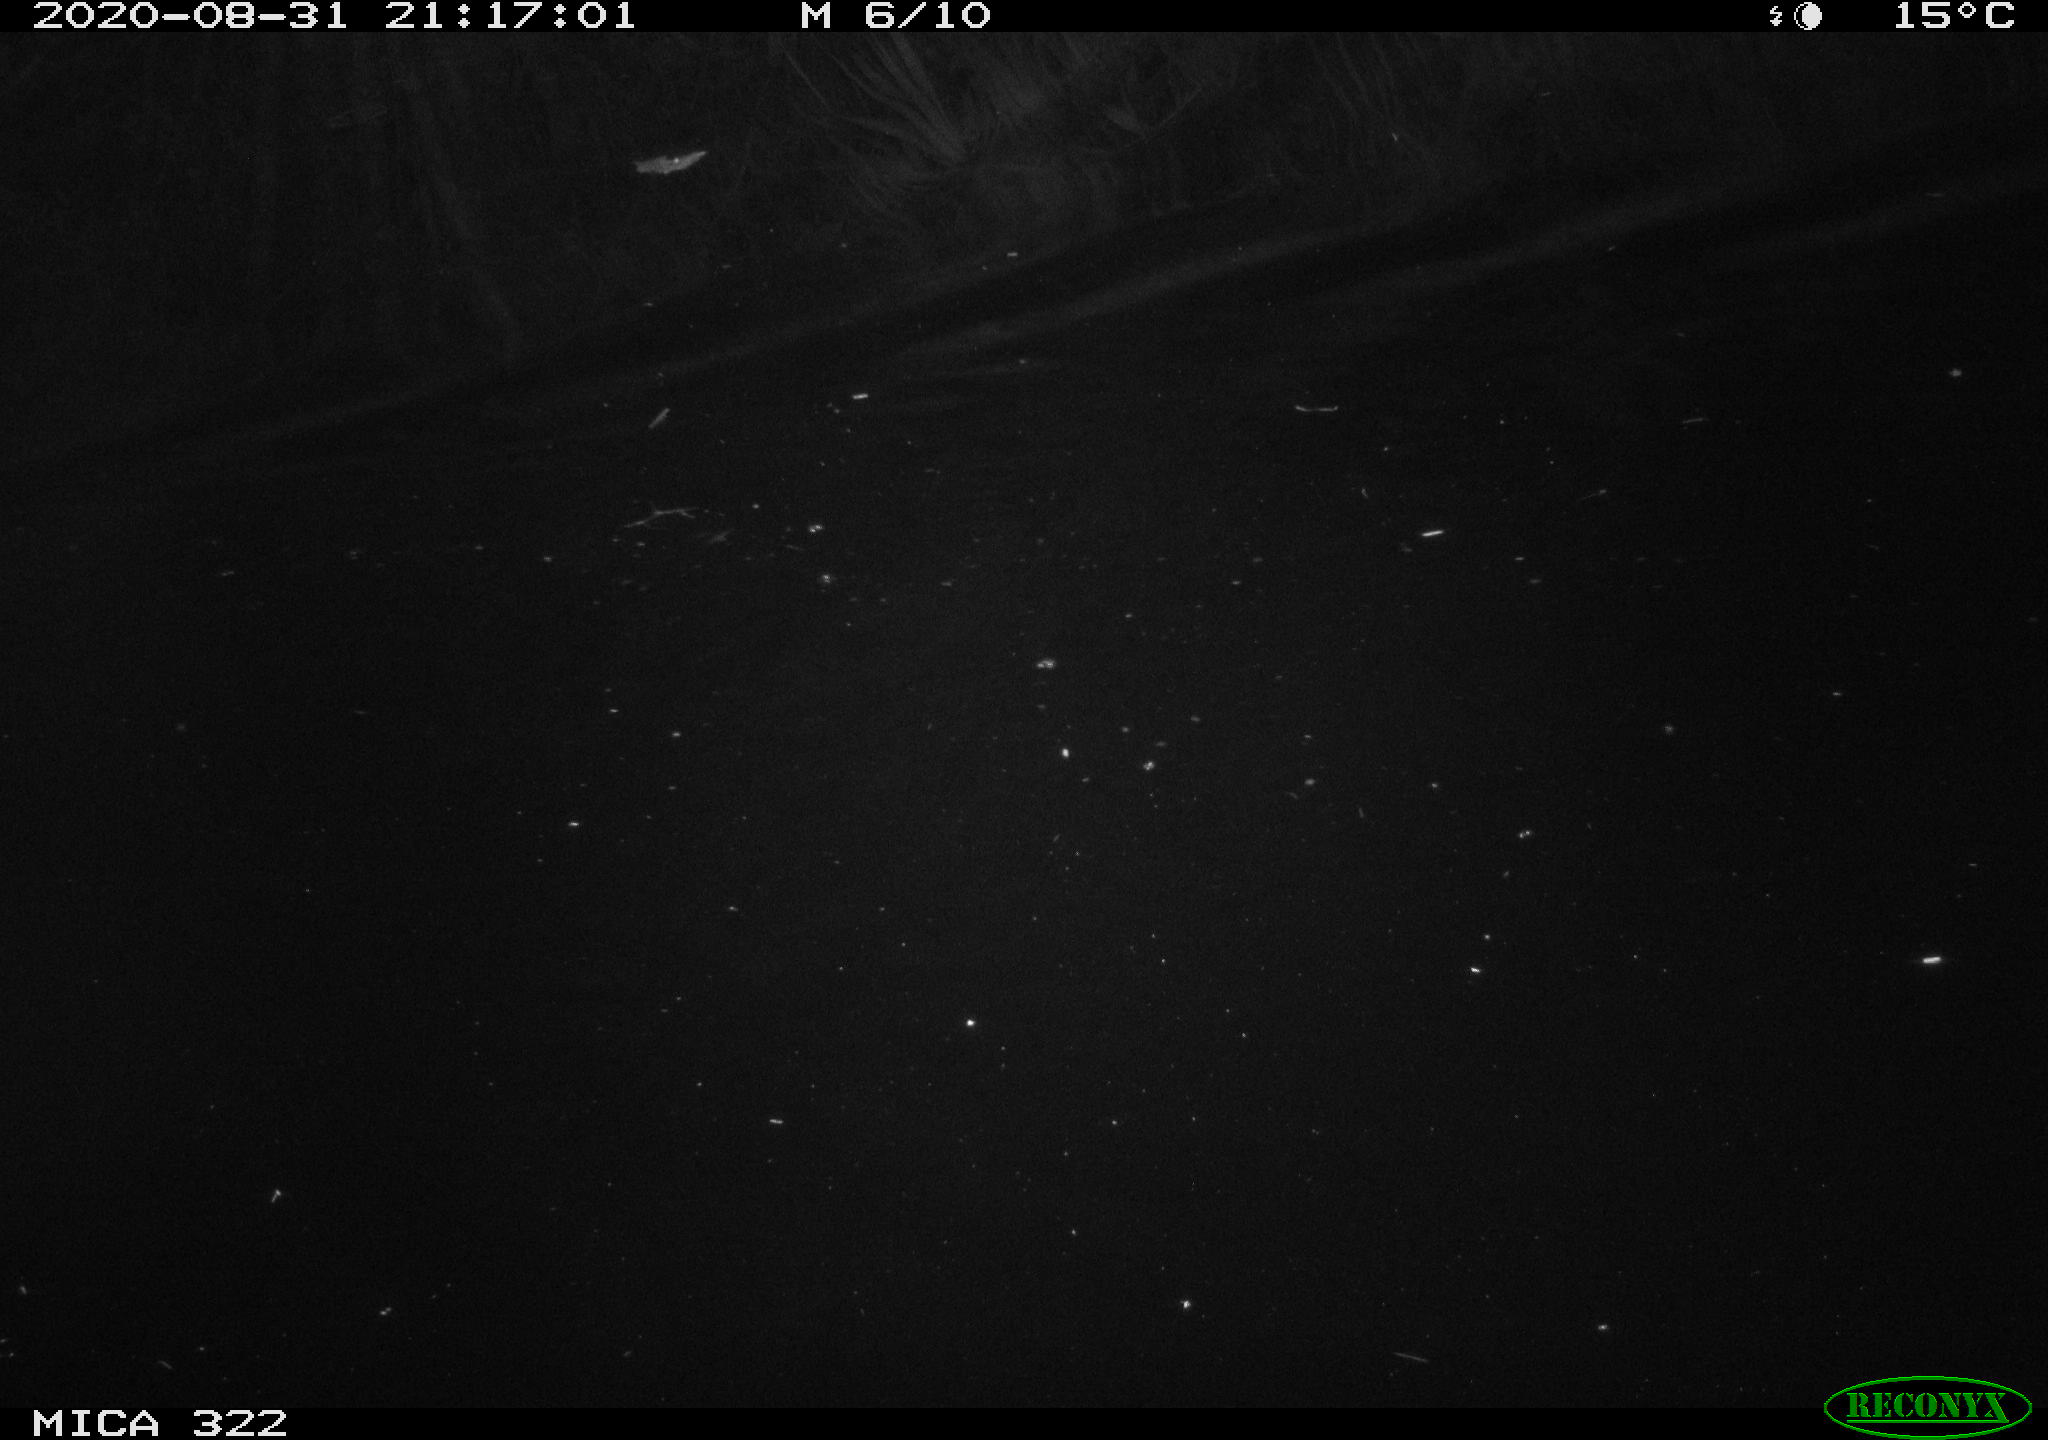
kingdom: Animalia
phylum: Chordata
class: Aves
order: Gruiformes
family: Rallidae
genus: Fulica
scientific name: Fulica atra
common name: Eurasian coot
